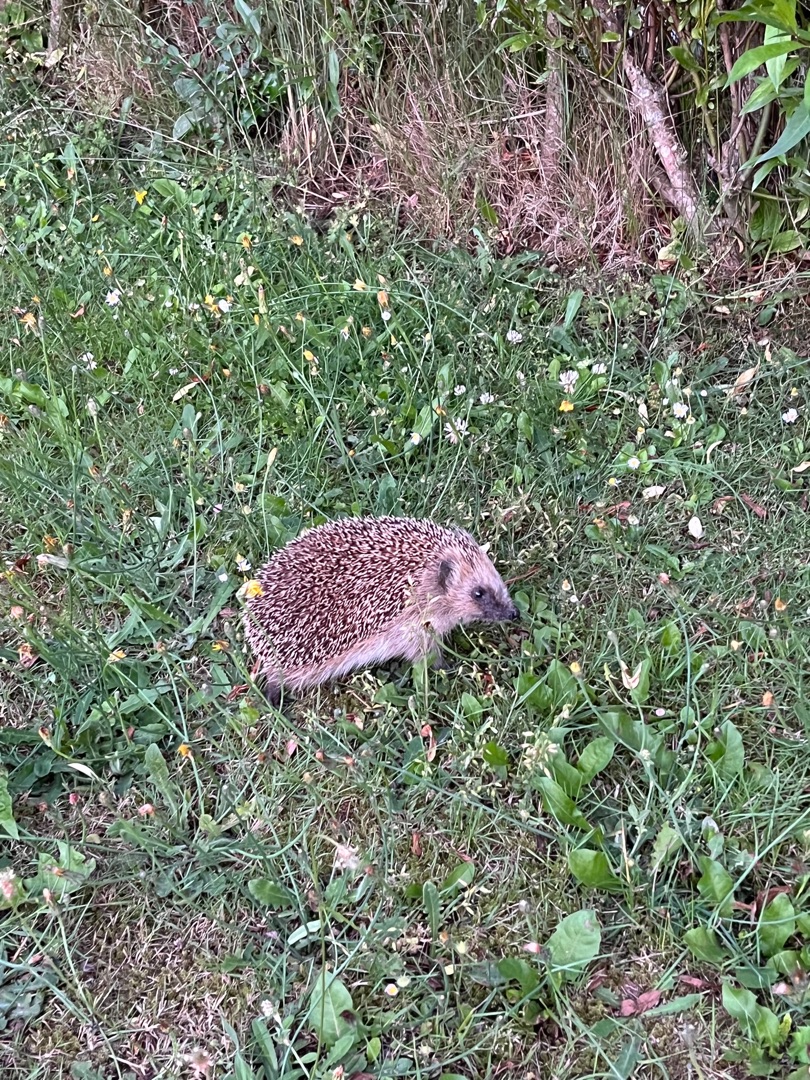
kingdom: Animalia
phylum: Chordata
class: Mammalia
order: Erinaceomorpha
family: Erinaceidae
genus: Erinaceus
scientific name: Erinaceus europaeus
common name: Pindsvin
